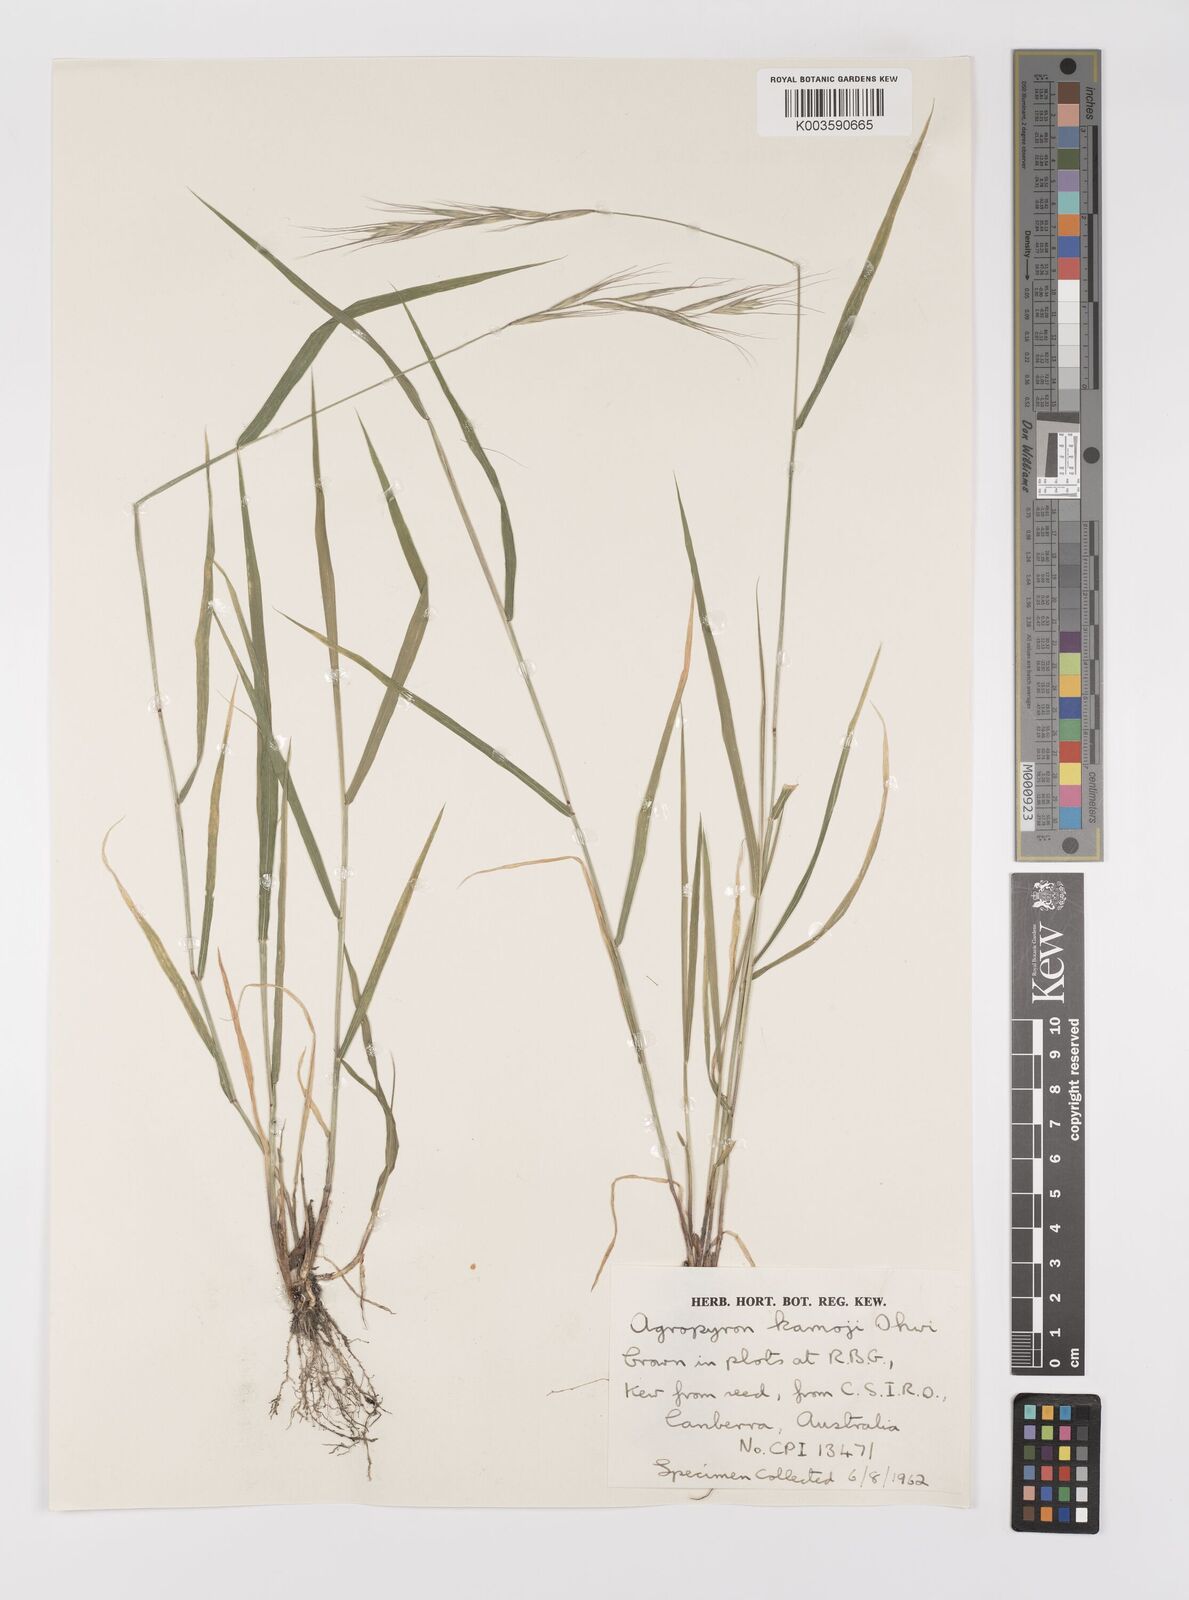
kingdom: Plantae
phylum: Tracheophyta
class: Liliopsida
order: Poales
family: Poaceae
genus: Elymus
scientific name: Elymus tsukushiensis
